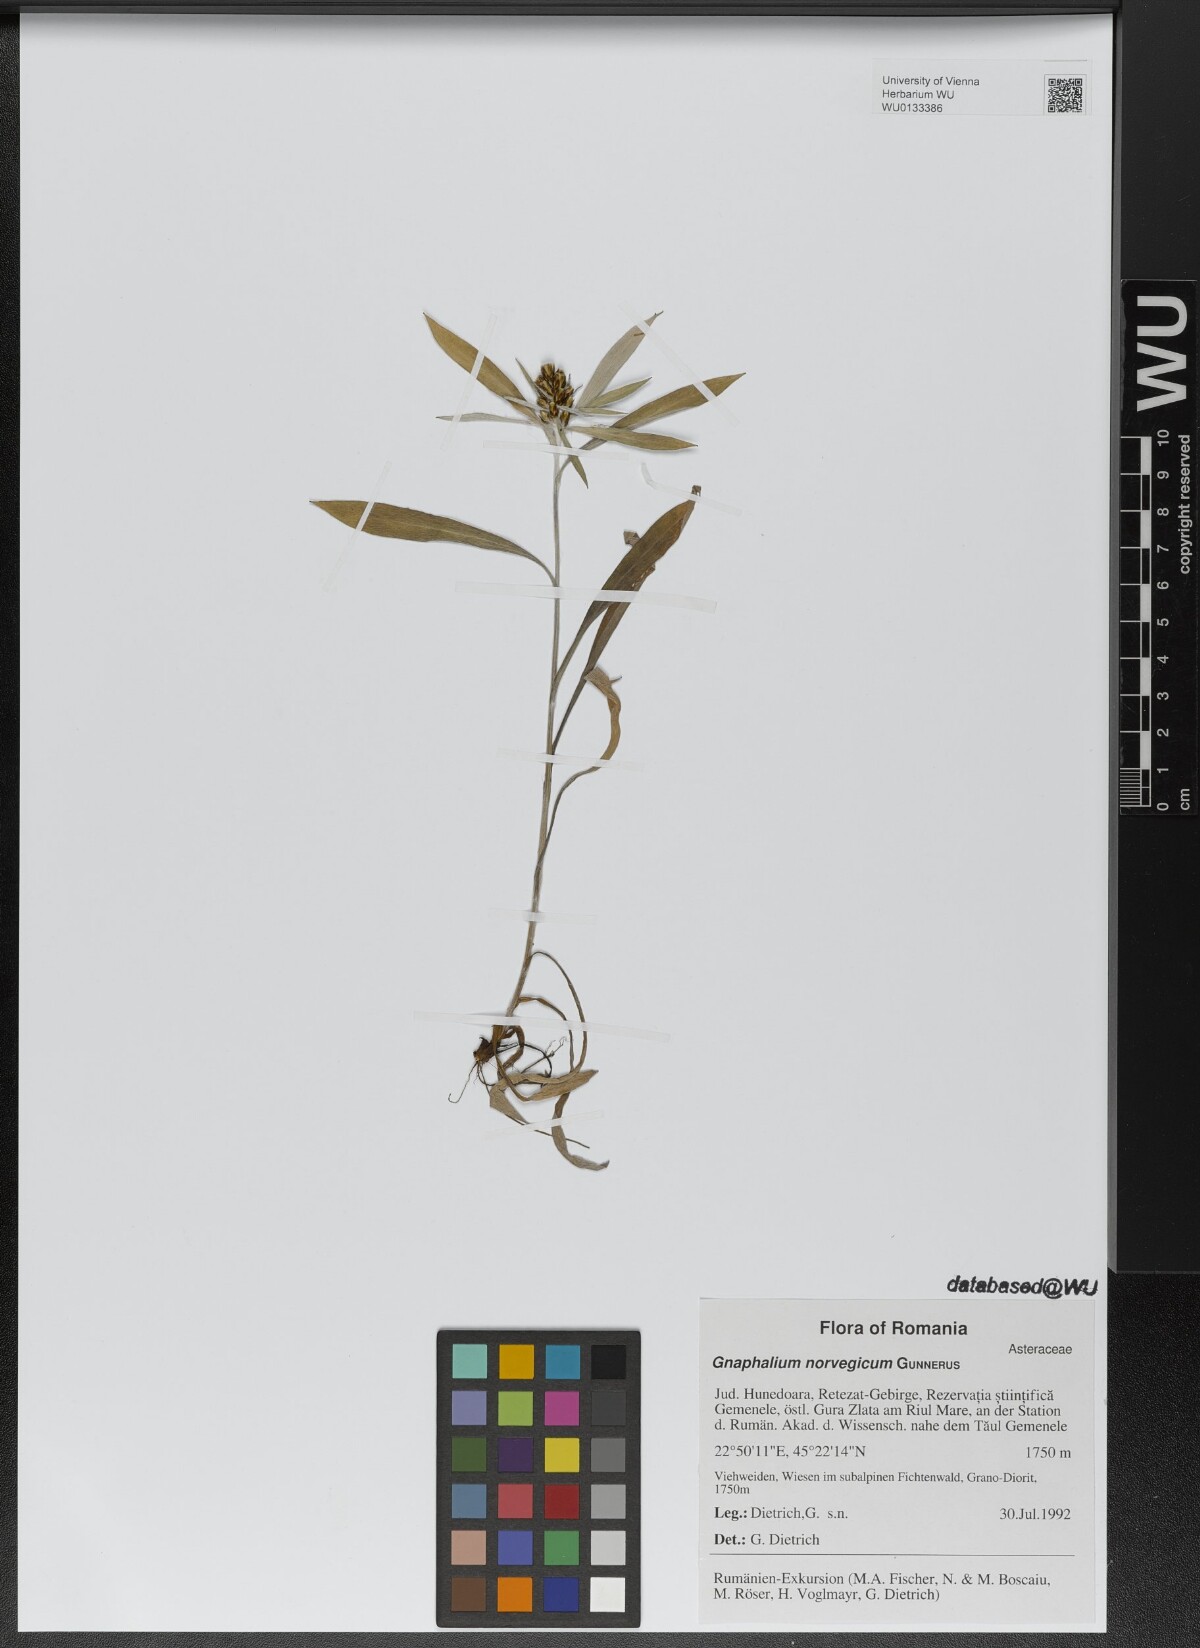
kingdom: Plantae
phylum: Tracheophyta
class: Magnoliopsida
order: Asterales
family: Asteraceae
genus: Omalotheca
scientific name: Omalotheca norvegica
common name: Norwegian arctic-cudweed
